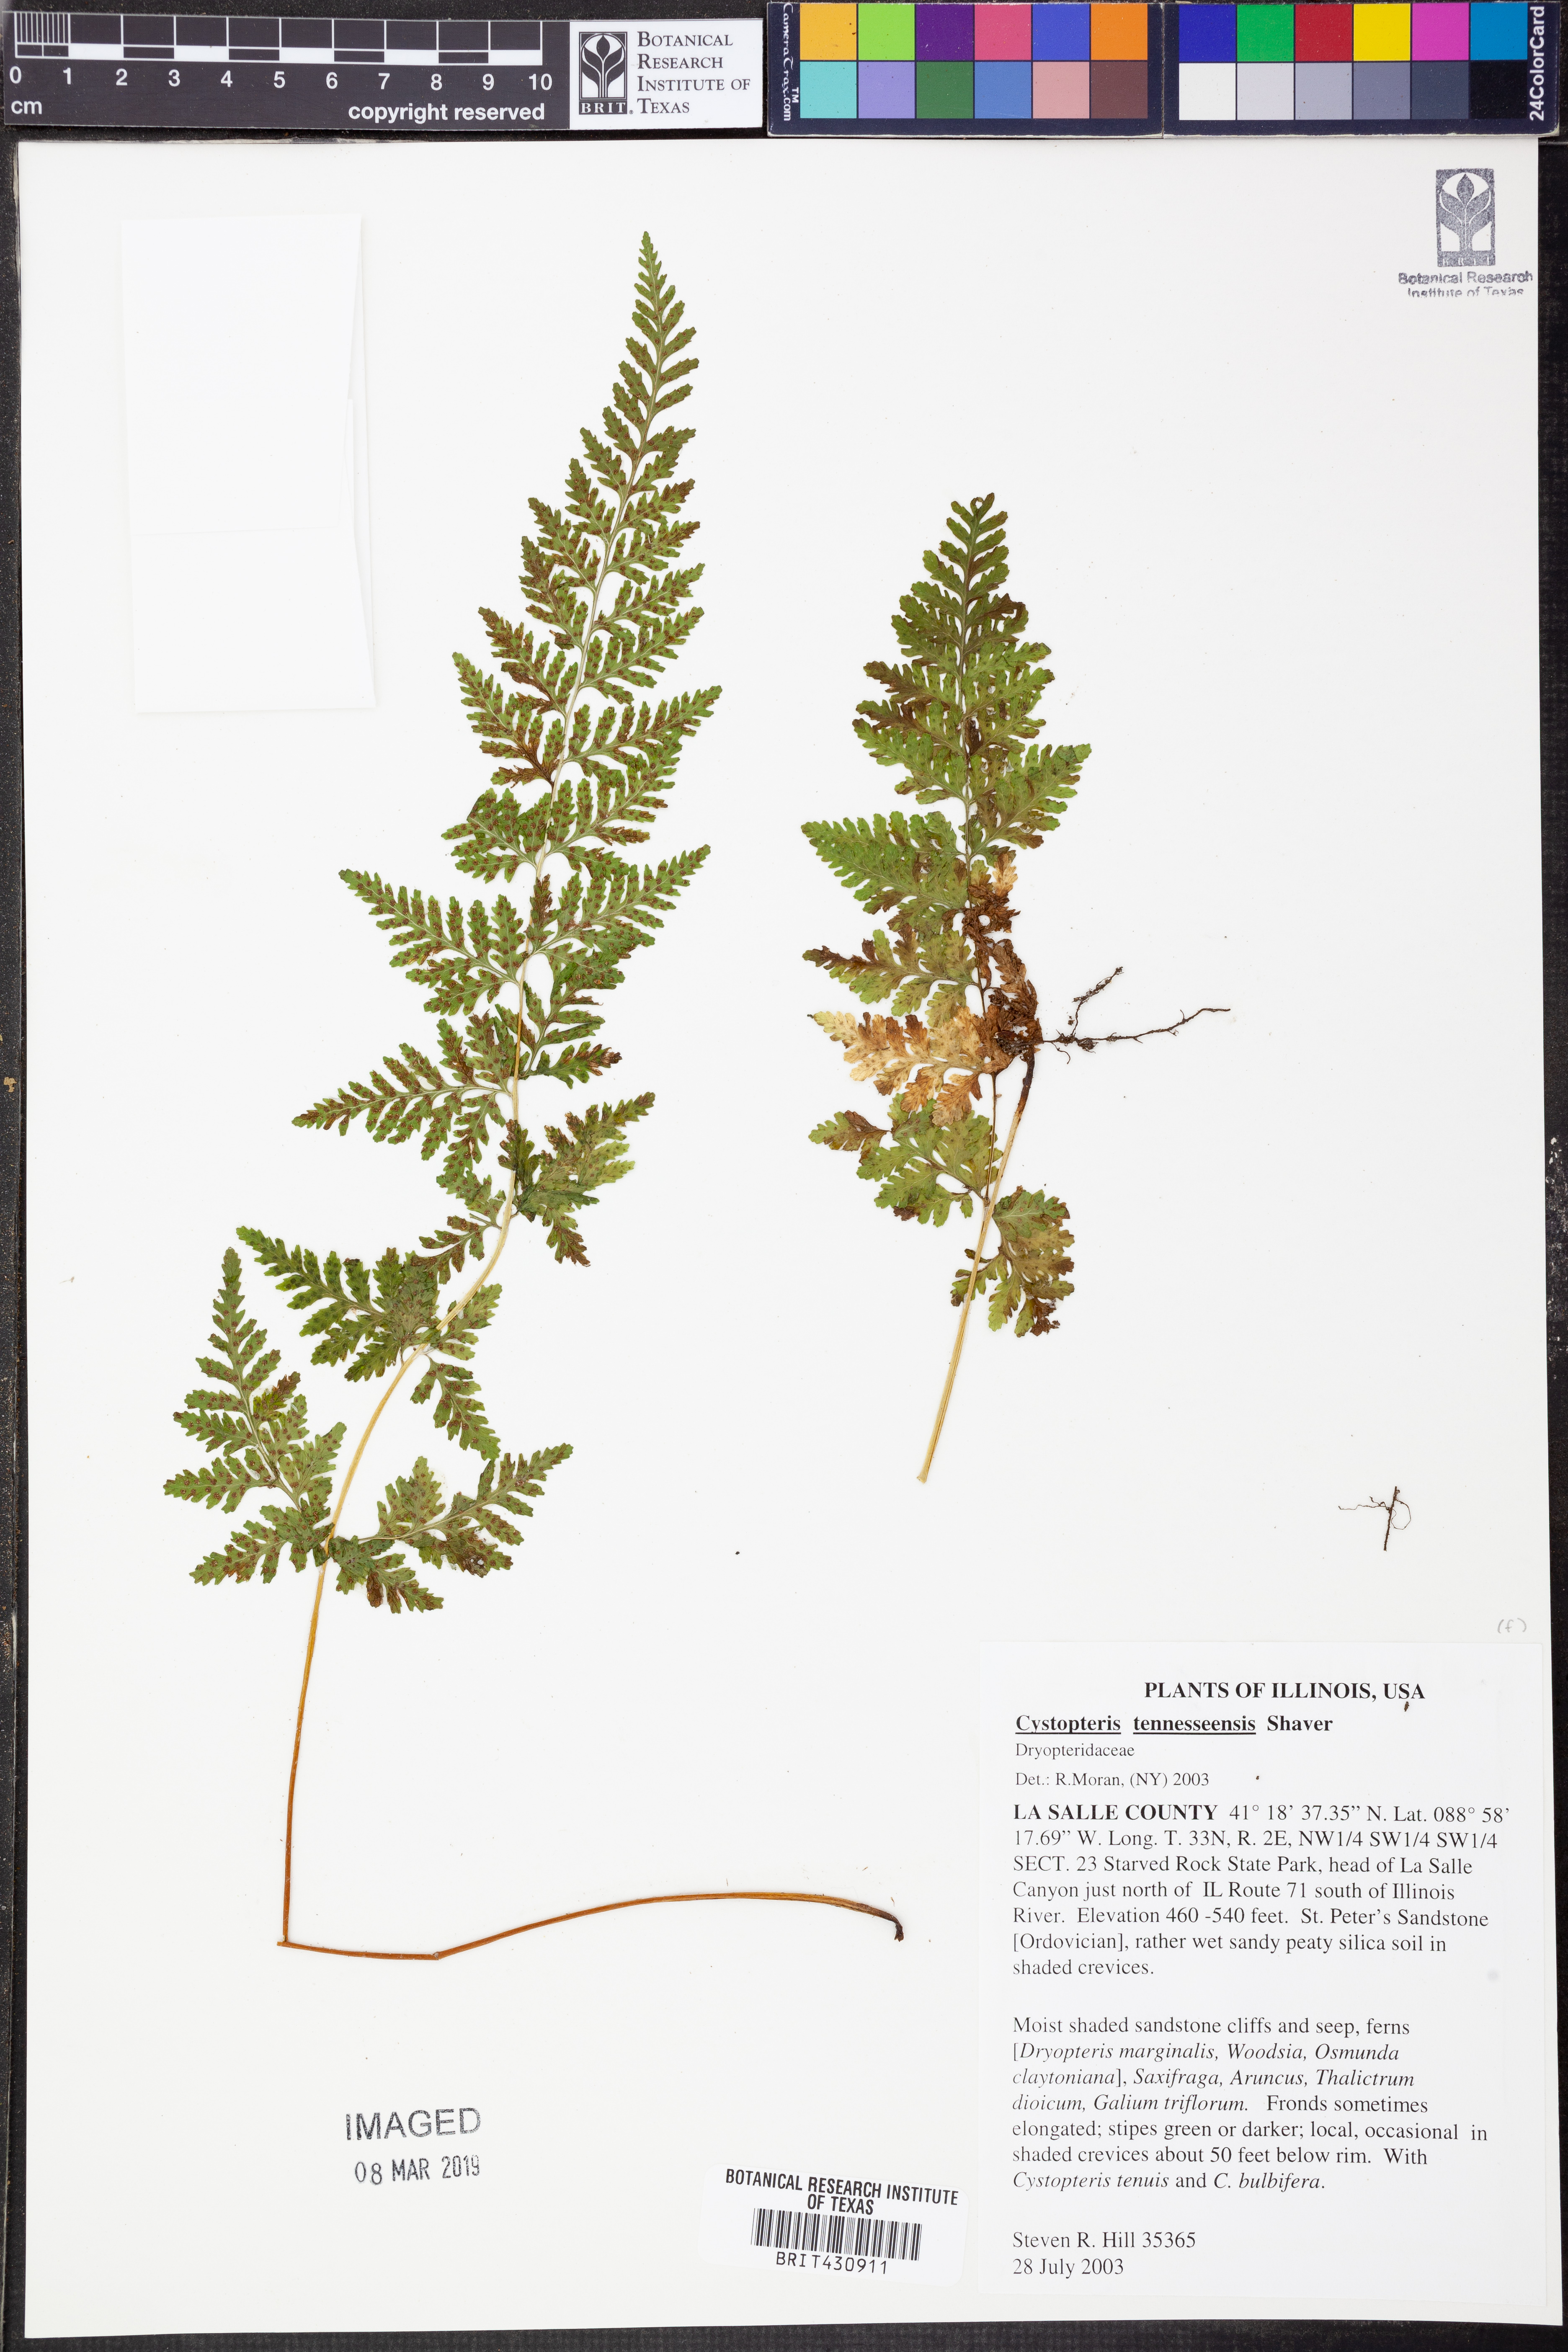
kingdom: Plantae
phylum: Tracheophyta
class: Polypodiopsida
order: Polypodiales
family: Cystopteridaceae
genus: Cystopteris
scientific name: Cystopteris tennesseensis
